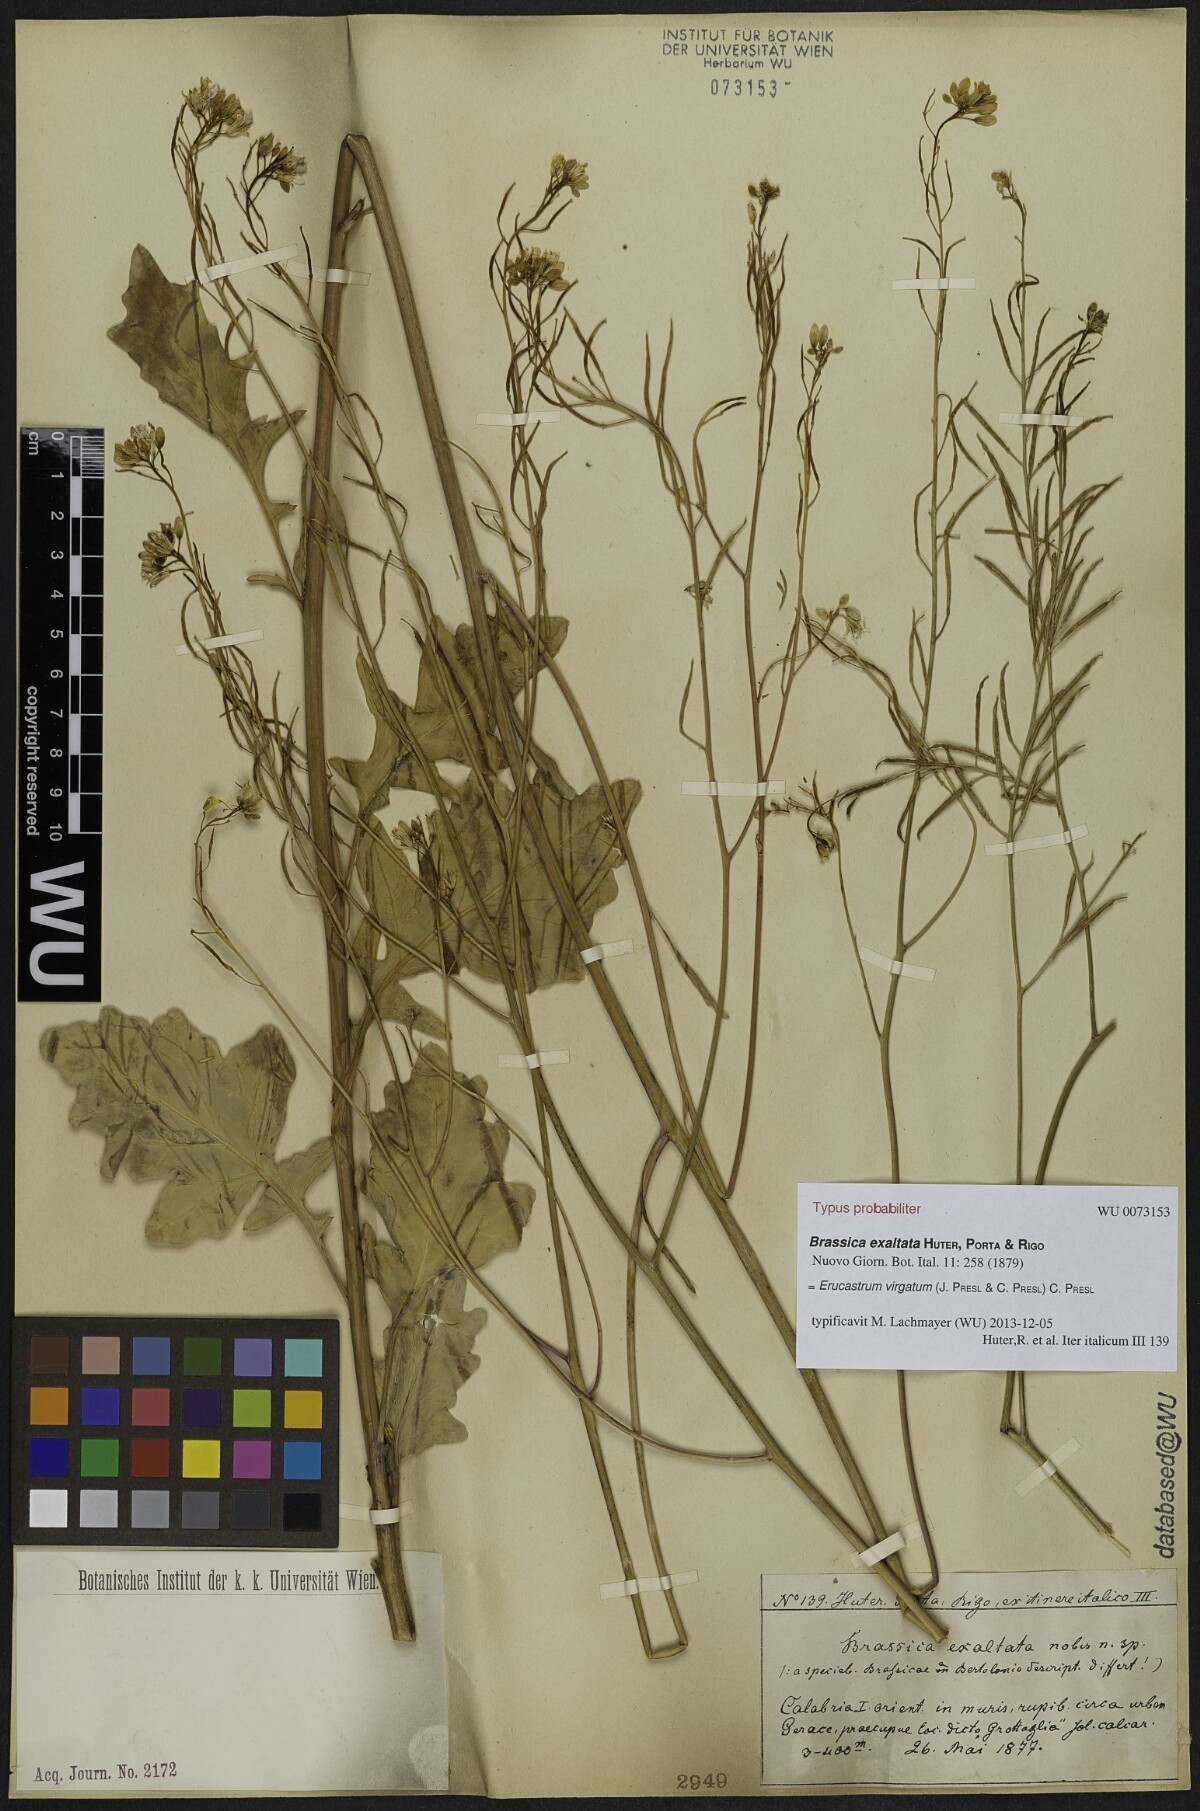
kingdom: Plantae
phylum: Tracheophyta
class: Magnoliopsida
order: Brassicales
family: Brassicaceae
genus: Erucastrum
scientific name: Erucastrum virgatum
